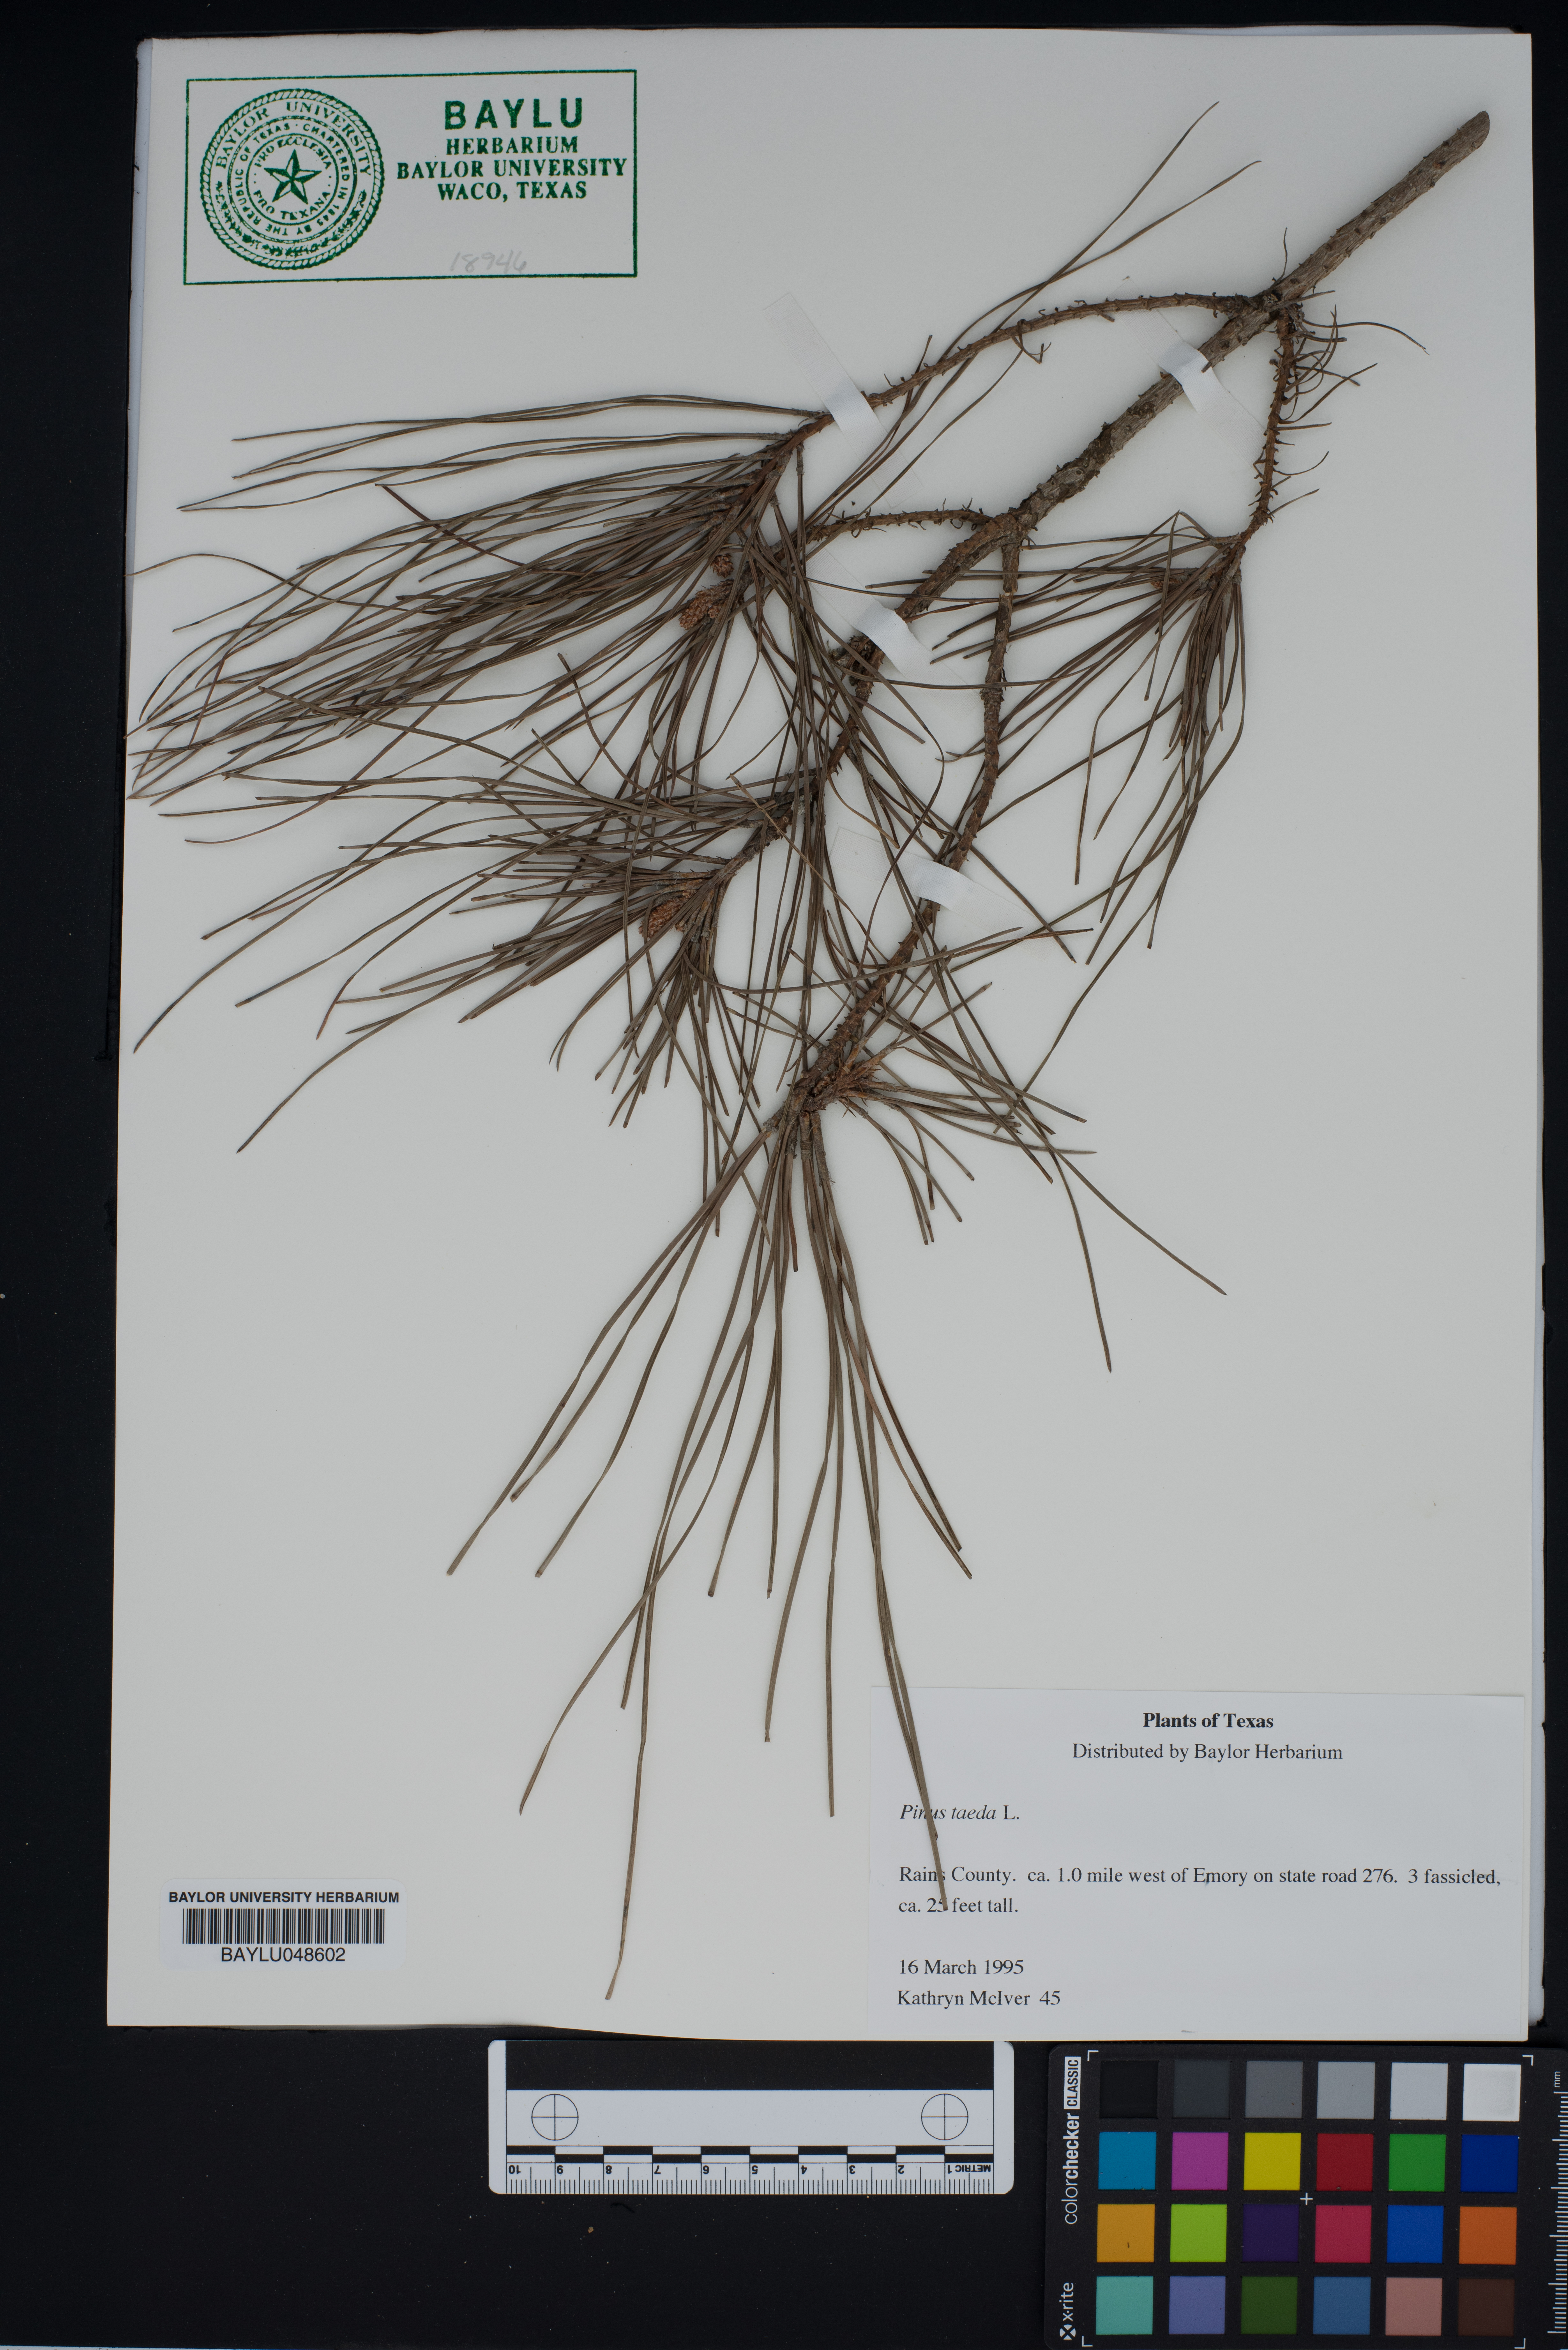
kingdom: Plantae
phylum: Tracheophyta
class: Pinopsida
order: Pinales
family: Pinaceae
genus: Pinus
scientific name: Pinus taeda
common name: Loblolly pine
